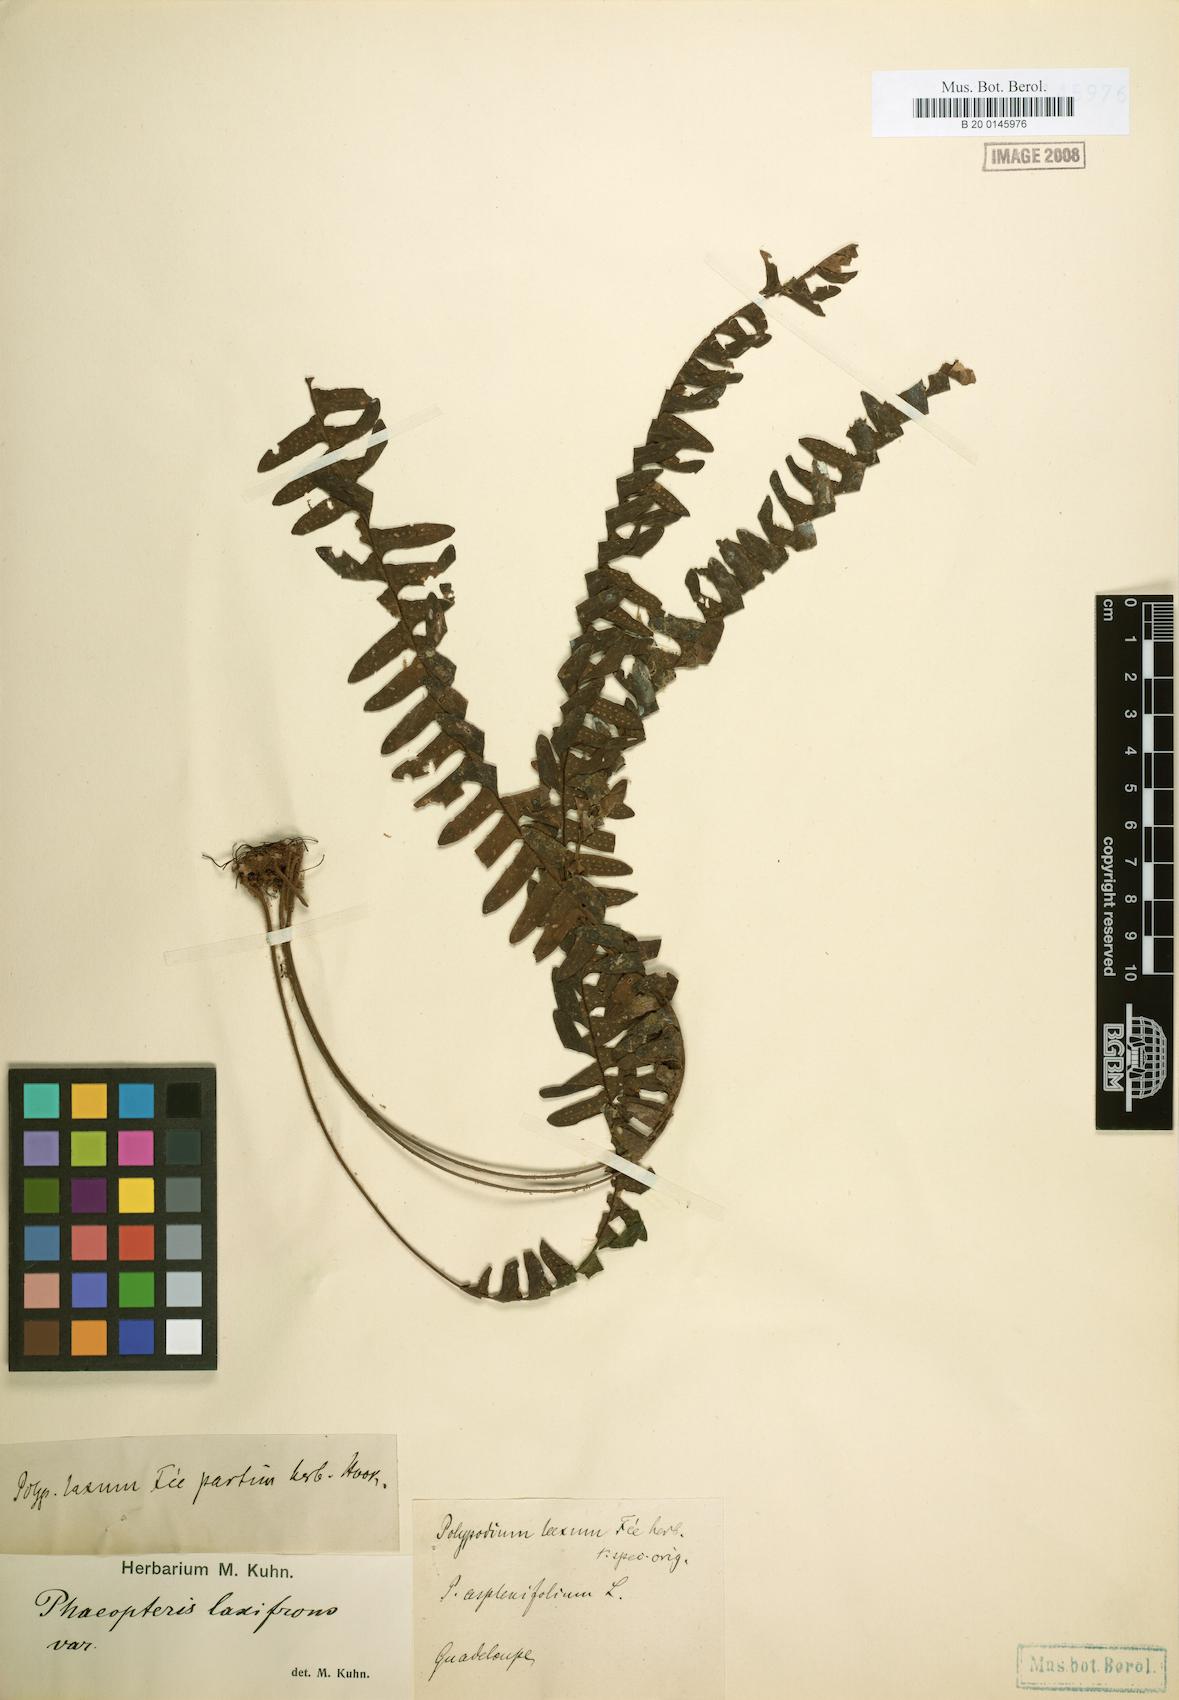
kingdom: Plantae
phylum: Tracheophyta
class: Polypodiopsida
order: Polypodiales
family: Polypodiaceae
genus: Terpsichore
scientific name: Terpsichore asplenifolia
